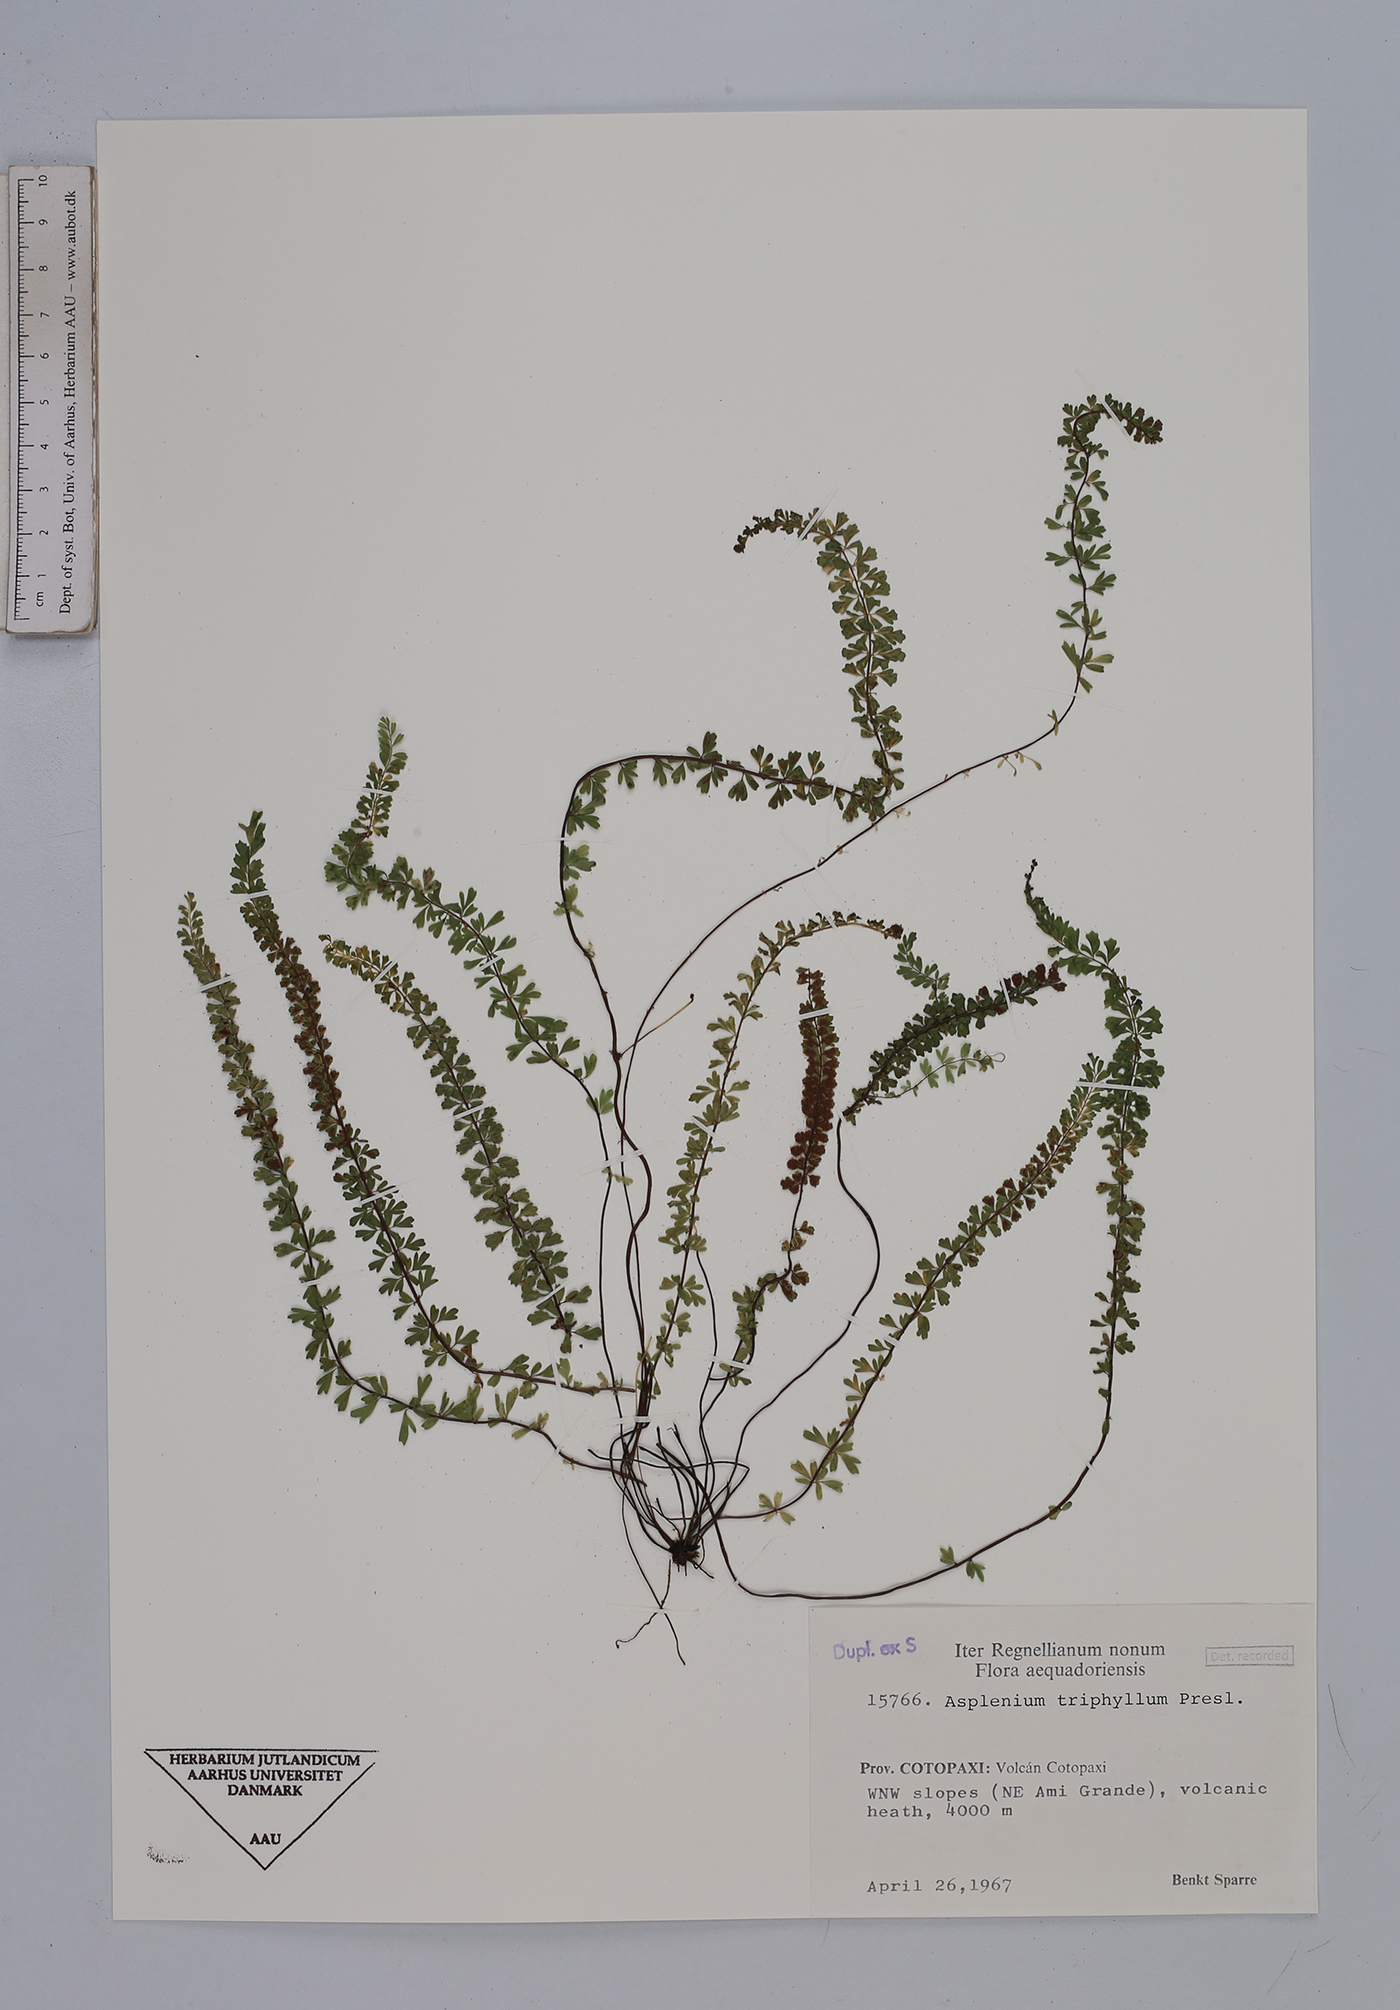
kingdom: Plantae
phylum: Tracheophyta
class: Polypodiopsida
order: Polypodiales
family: Aspleniaceae
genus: Asplenium
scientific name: Asplenium triphyllum
